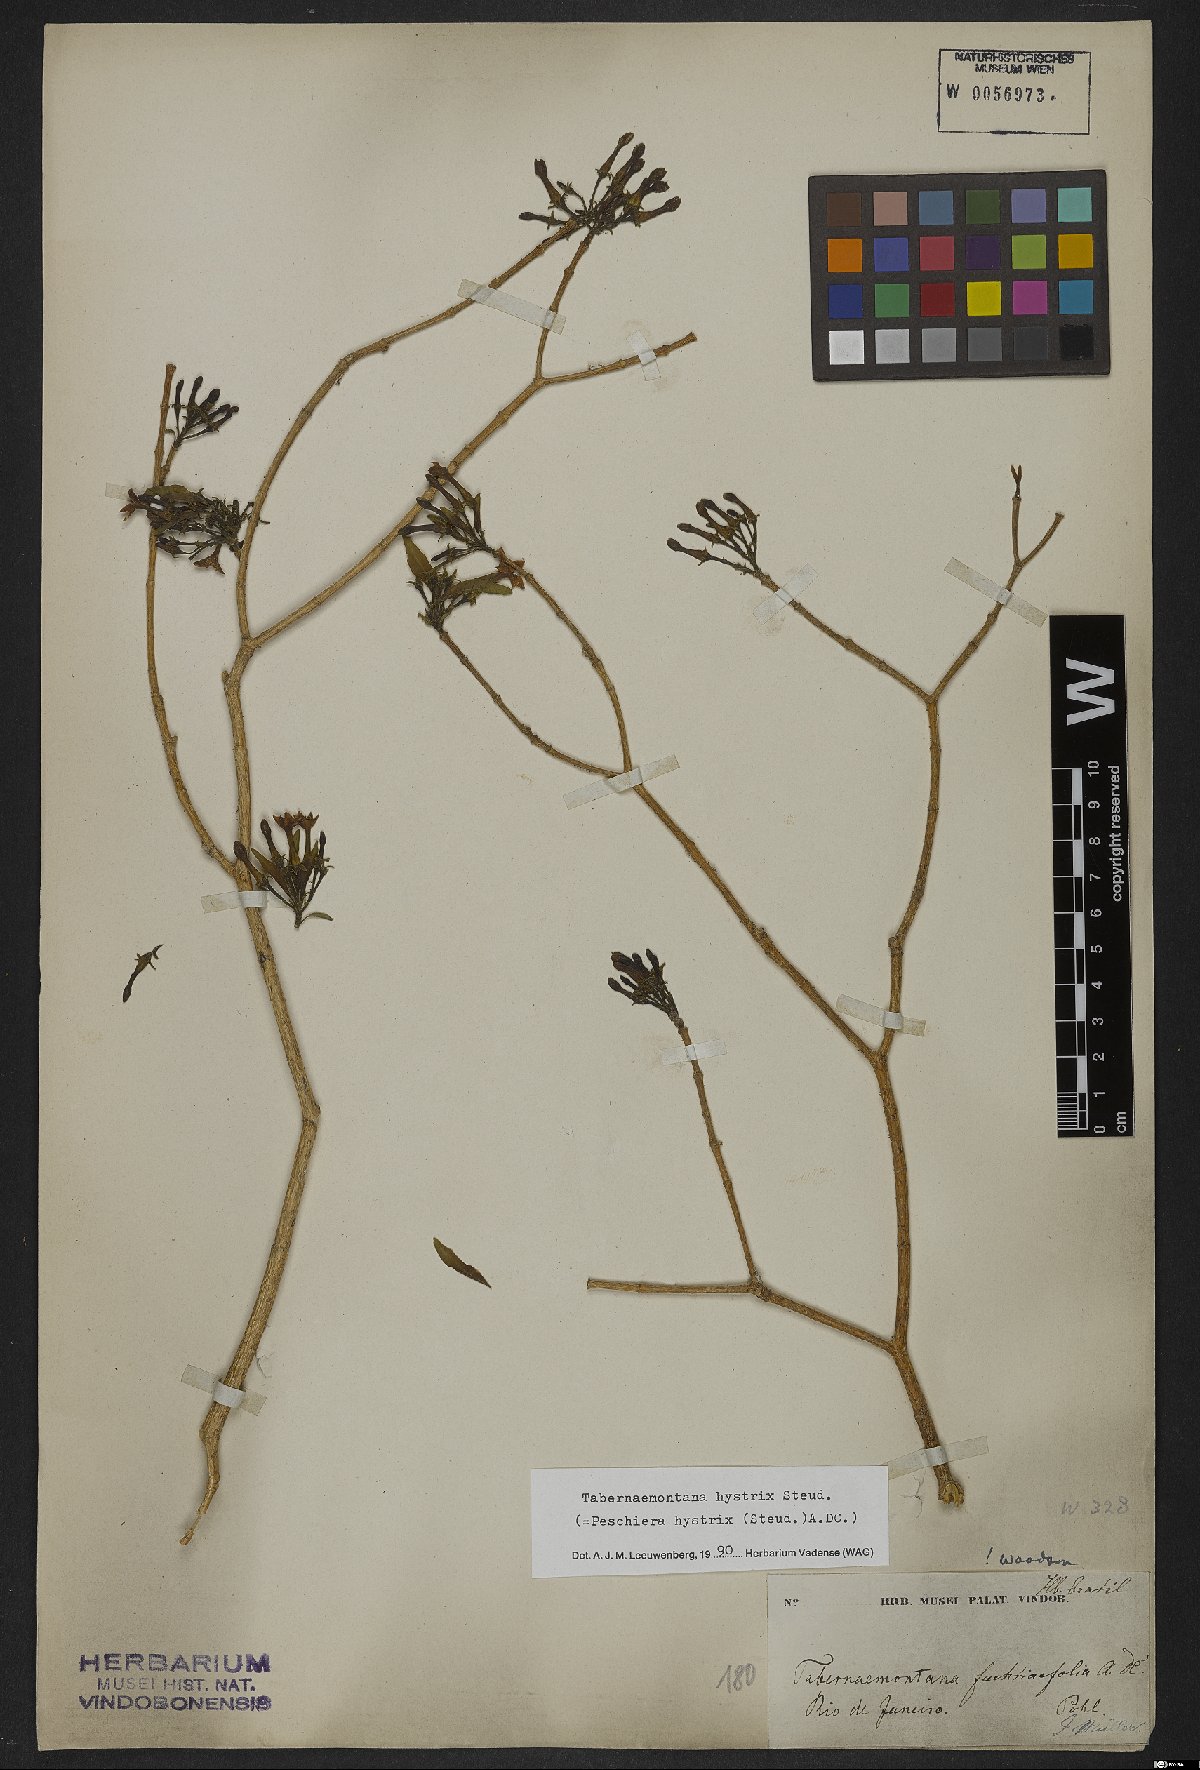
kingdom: Plantae
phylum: Tracheophyta
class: Magnoliopsida
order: Gentianales
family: Apocynaceae
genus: Tabernaemontana
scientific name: Tabernaemontana hystrix
